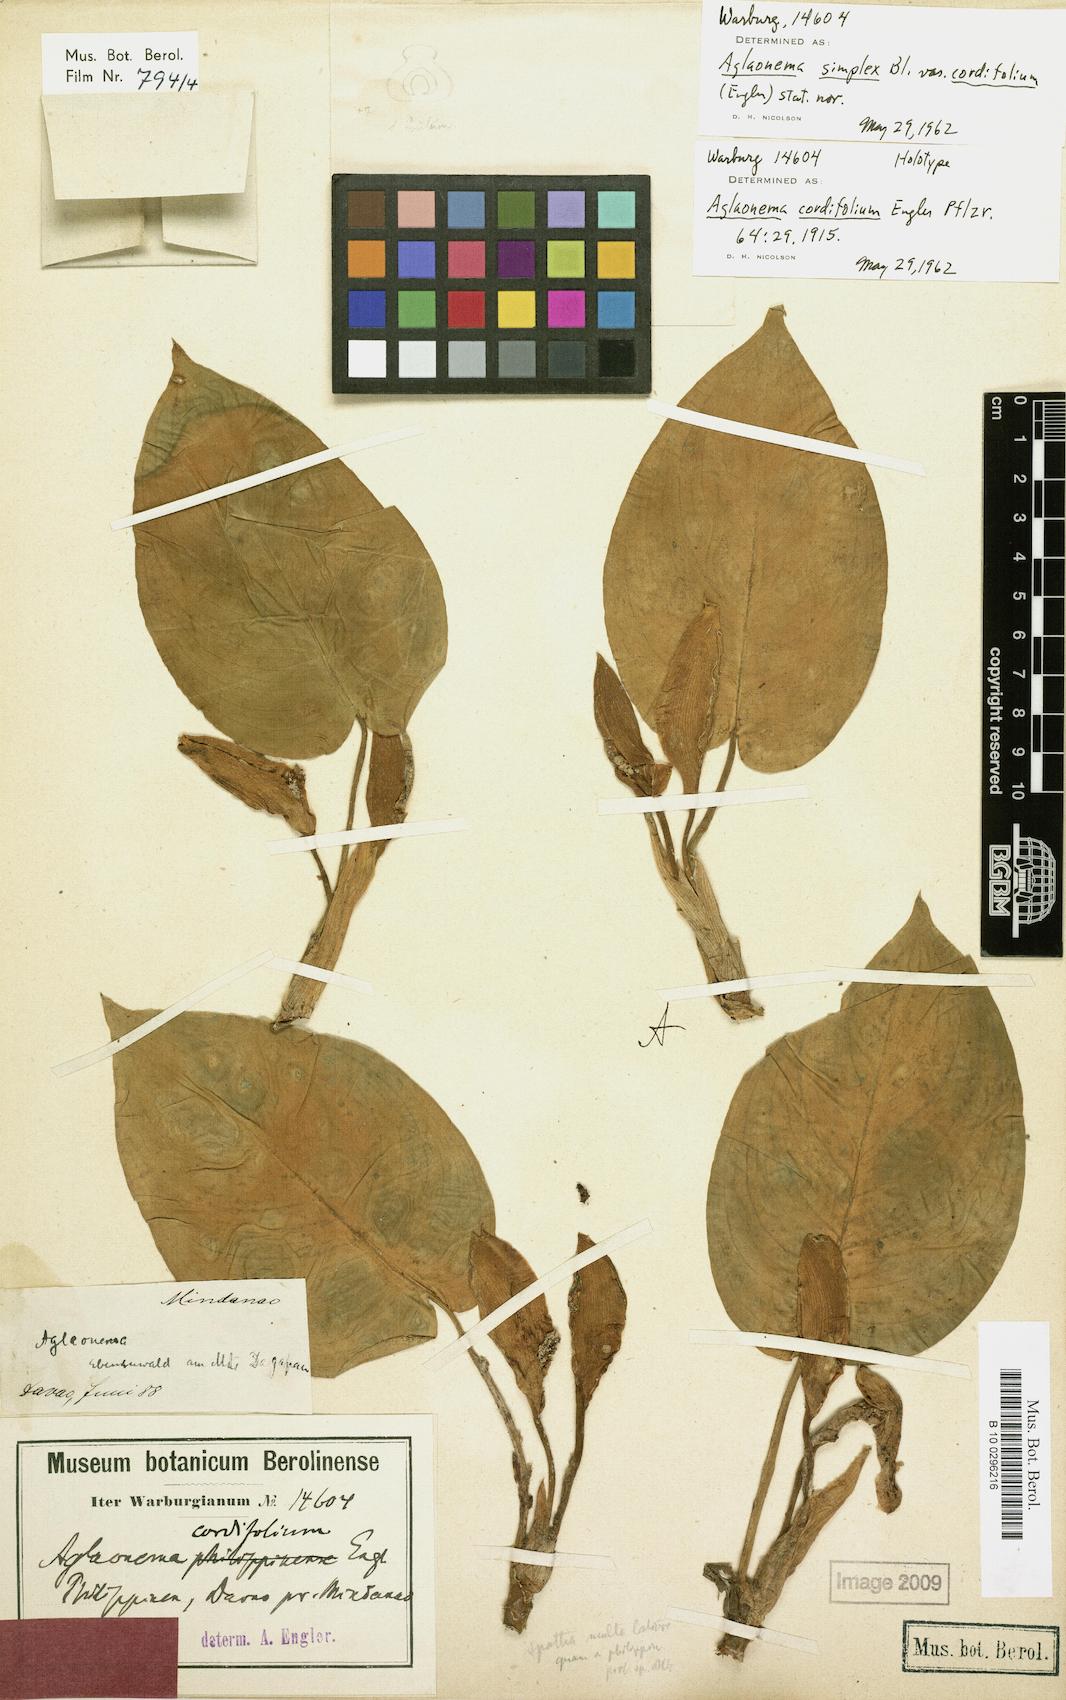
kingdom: Plantae
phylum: Tracheophyta
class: Liliopsida
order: Alismatales
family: Araceae
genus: Aglaonema
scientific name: Aglaonema cordifolium
